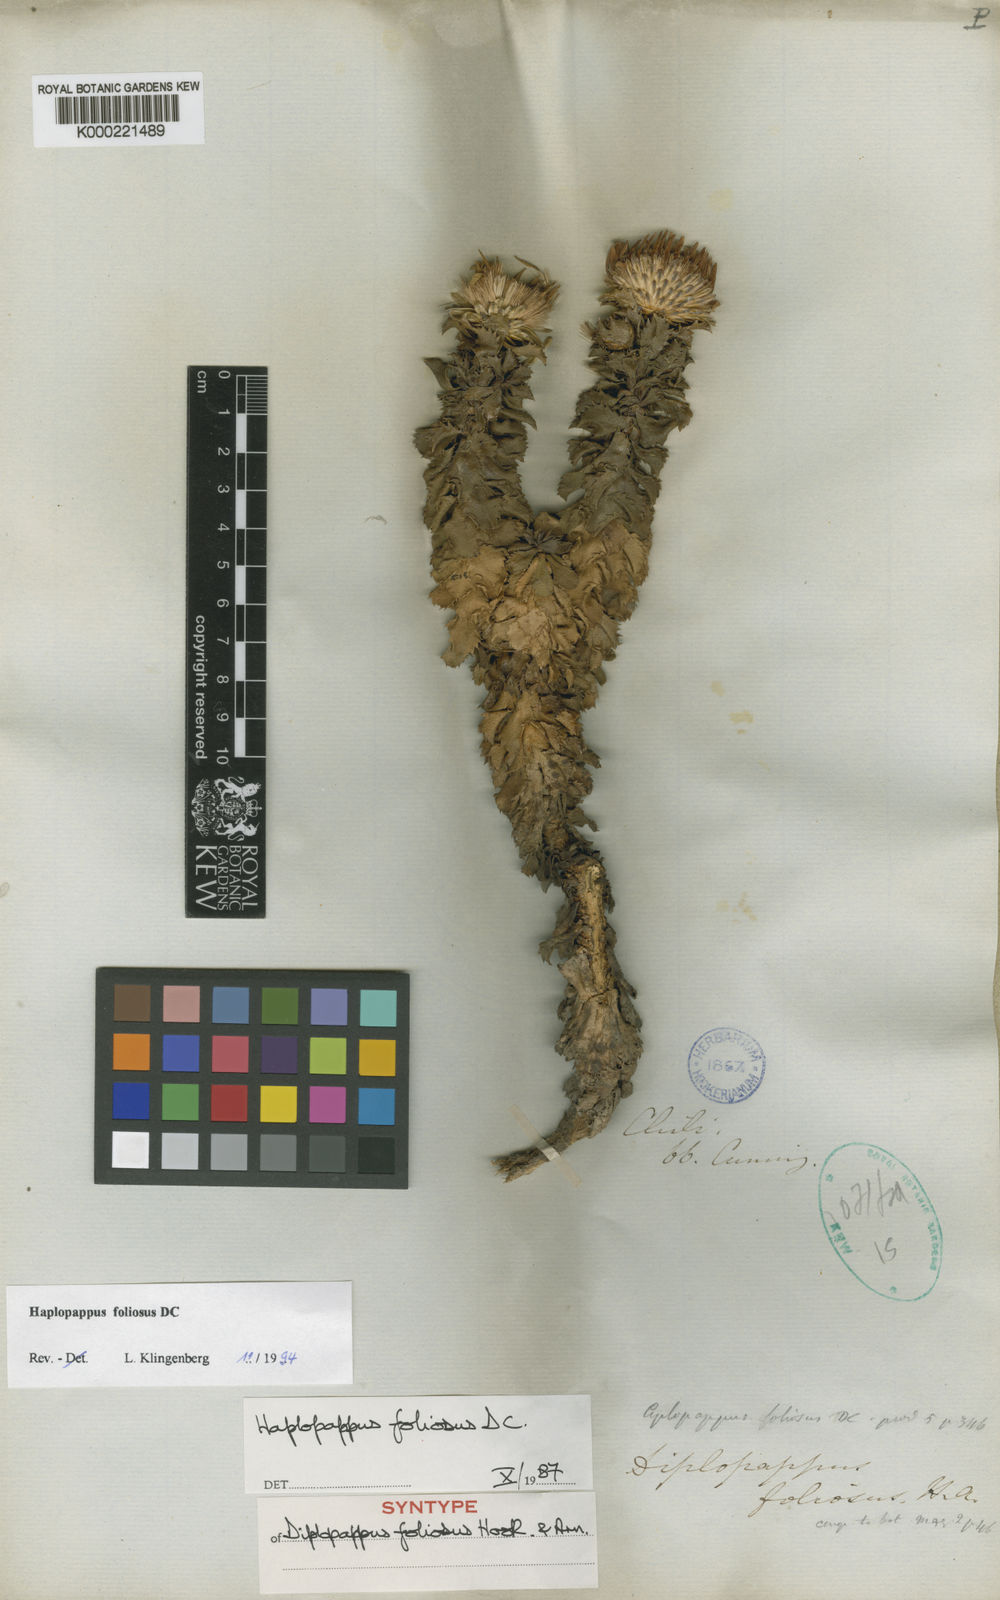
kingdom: Plantae
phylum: Tracheophyta
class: Magnoliopsida
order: Asterales
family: Asteraceae
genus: Haplopappus
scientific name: Haplopappus foliosus
